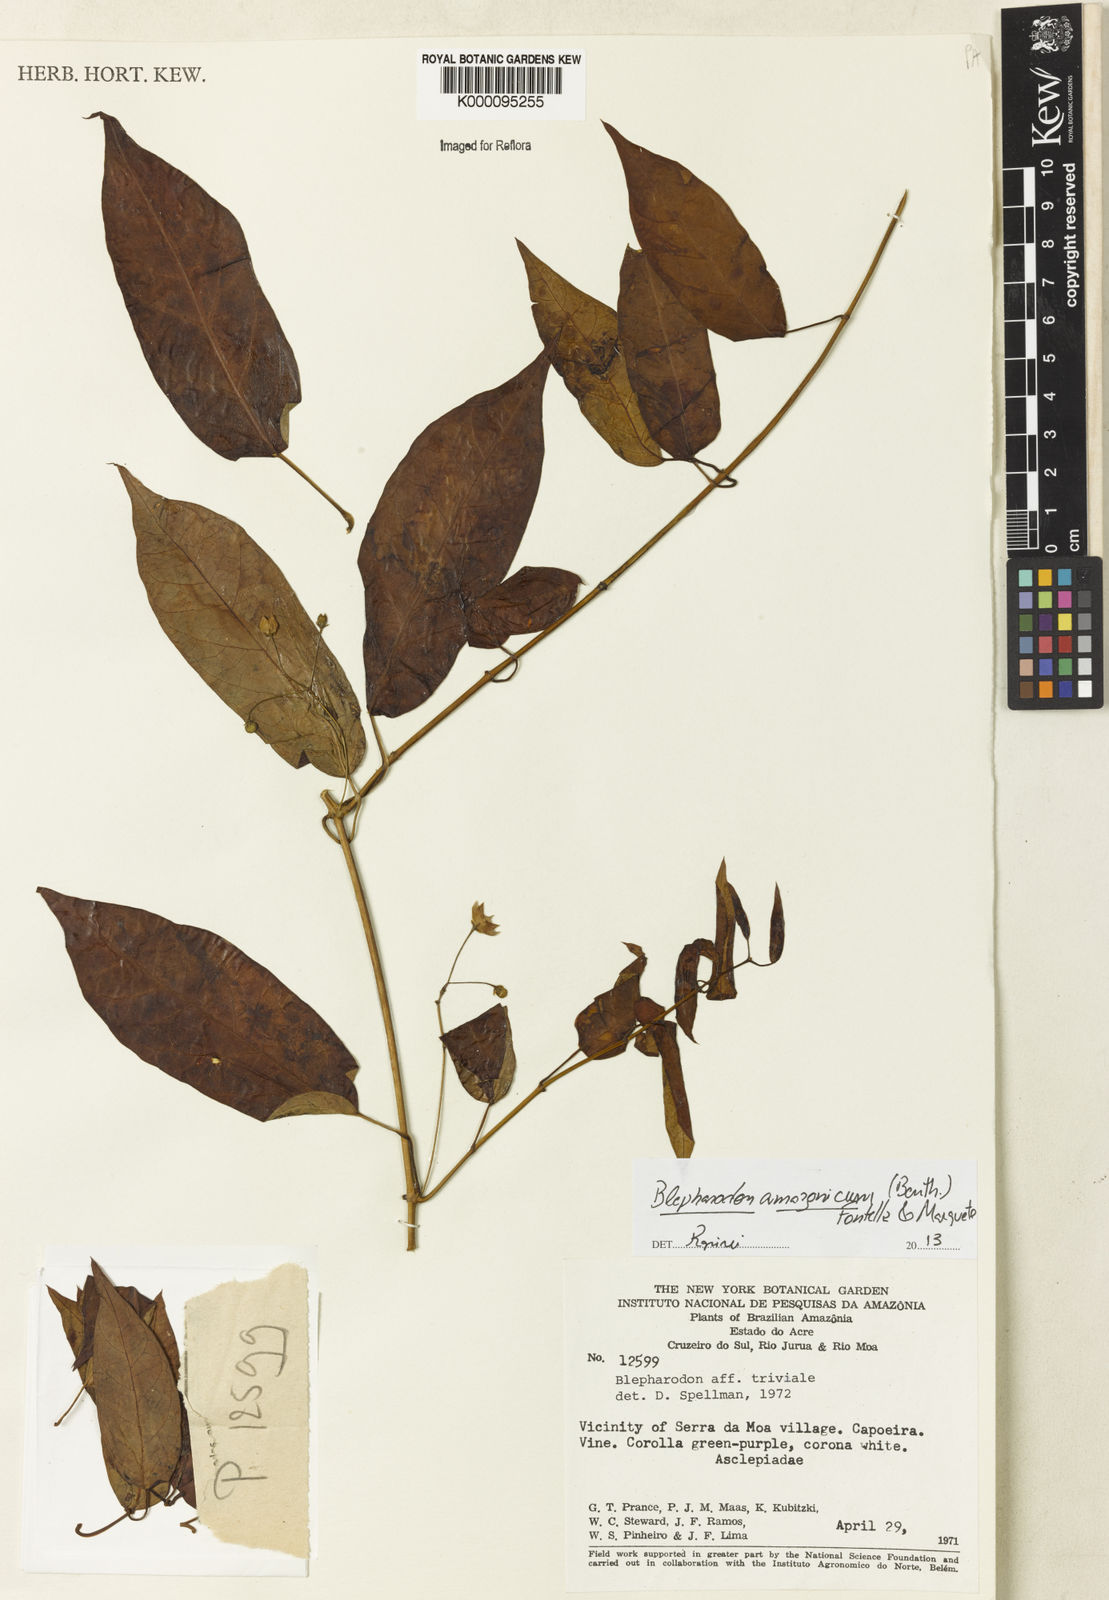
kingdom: Plantae
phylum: Tracheophyta
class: Magnoliopsida
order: Gentianales
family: Apocynaceae
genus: Blepharodon
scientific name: Blepharodon amazonicum
